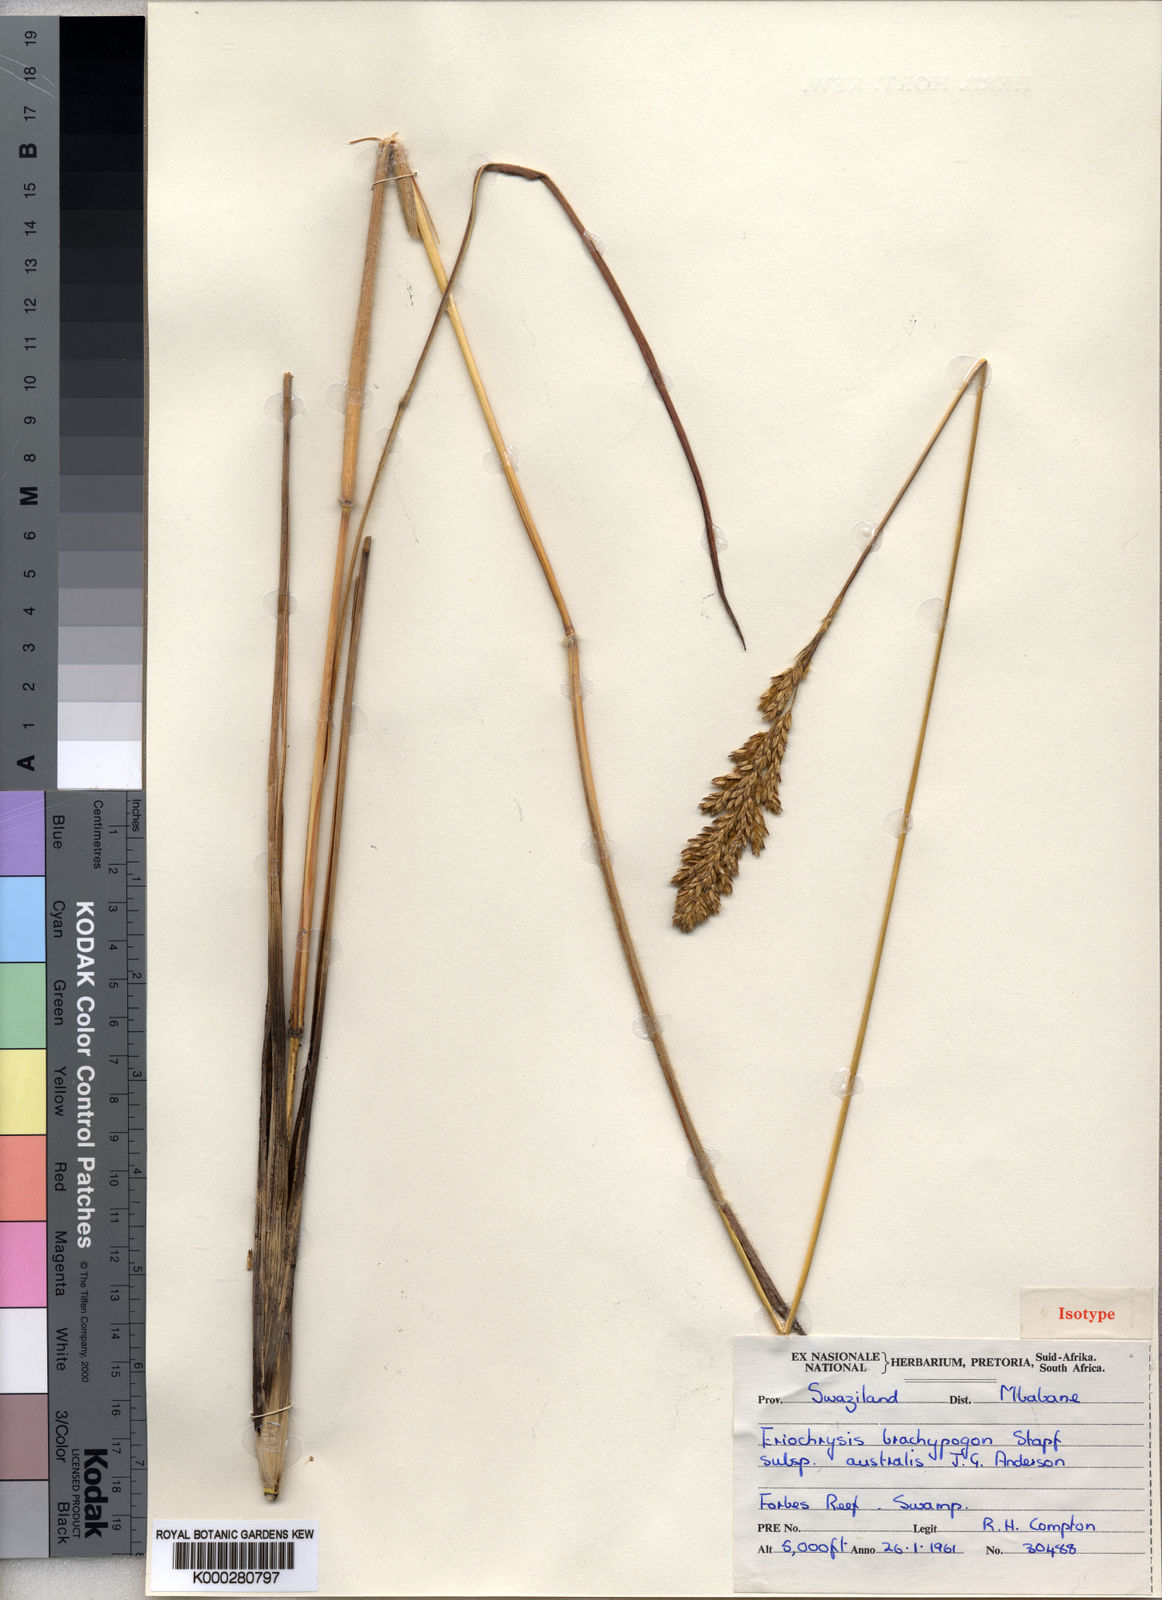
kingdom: Plantae
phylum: Tracheophyta
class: Liliopsida
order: Poales
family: Poaceae
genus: Eriochrysis
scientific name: Eriochrysis brachypogon
